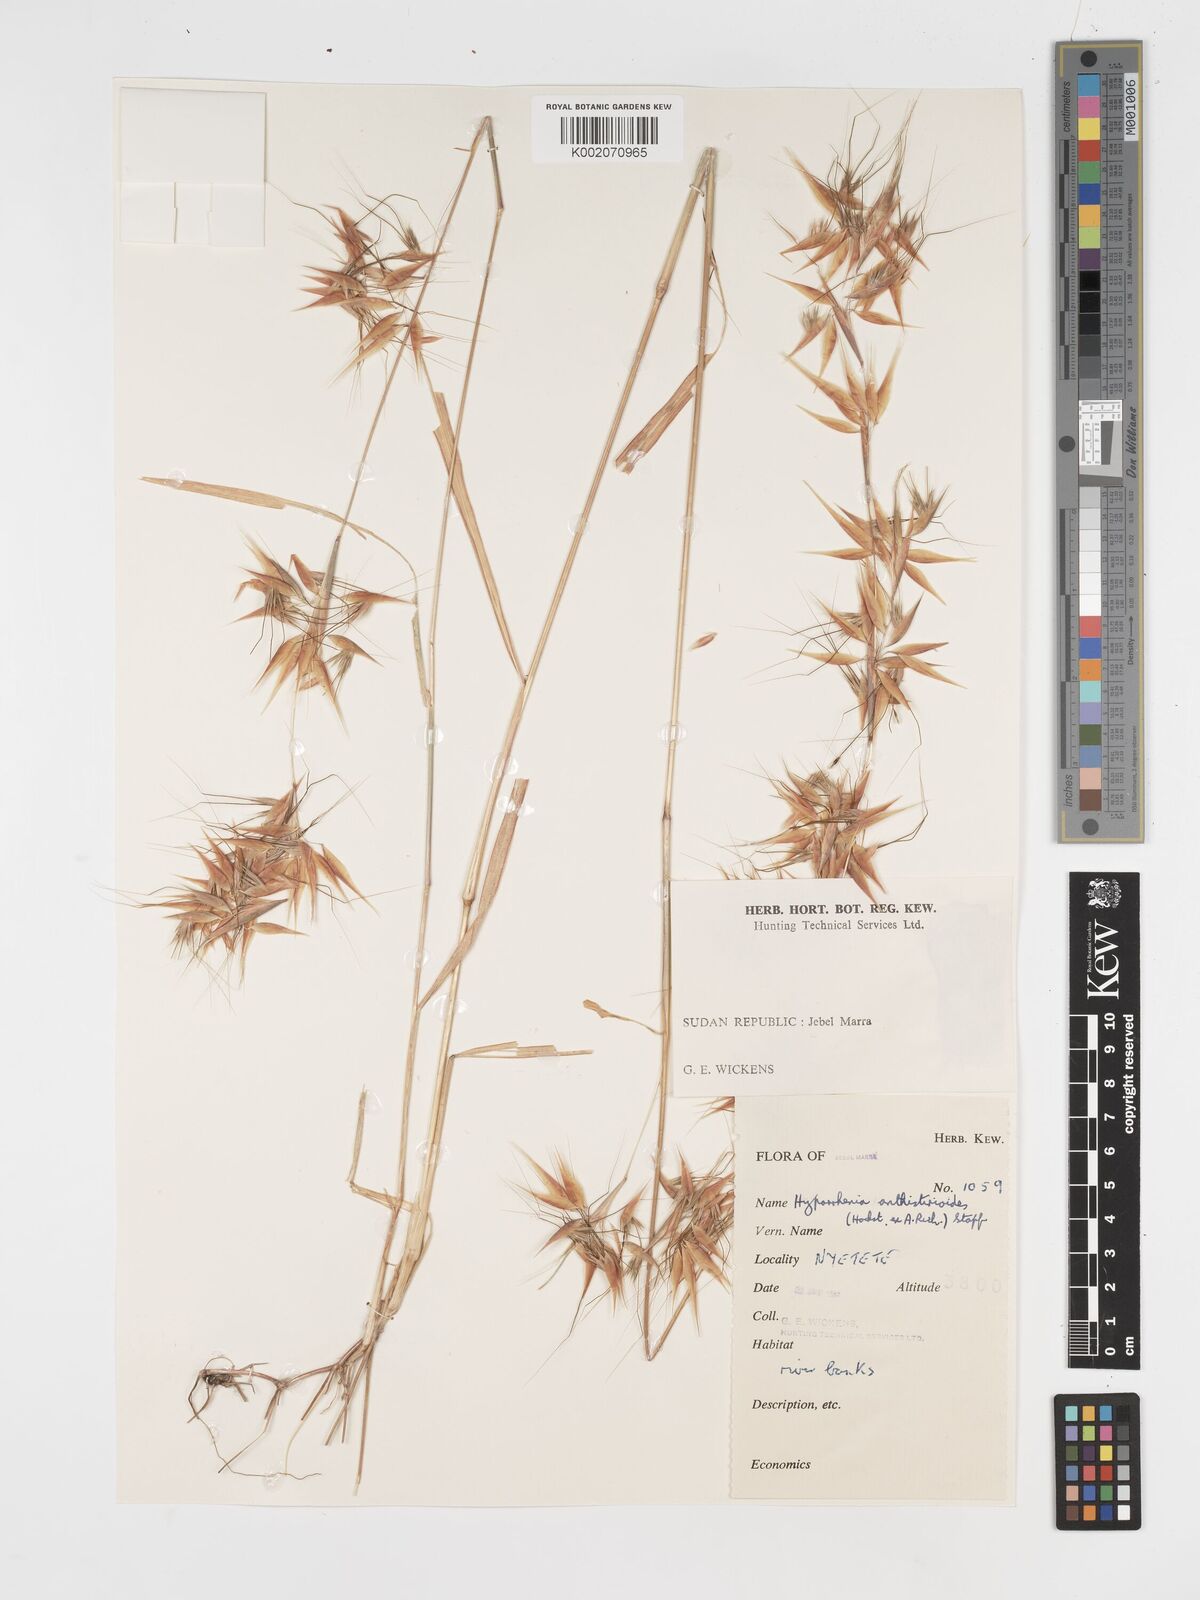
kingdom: Plantae
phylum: Tracheophyta
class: Liliopsida
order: Poales
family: Poaceae
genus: Hyparrhenia
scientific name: Hyparrhenia anthistirioides
